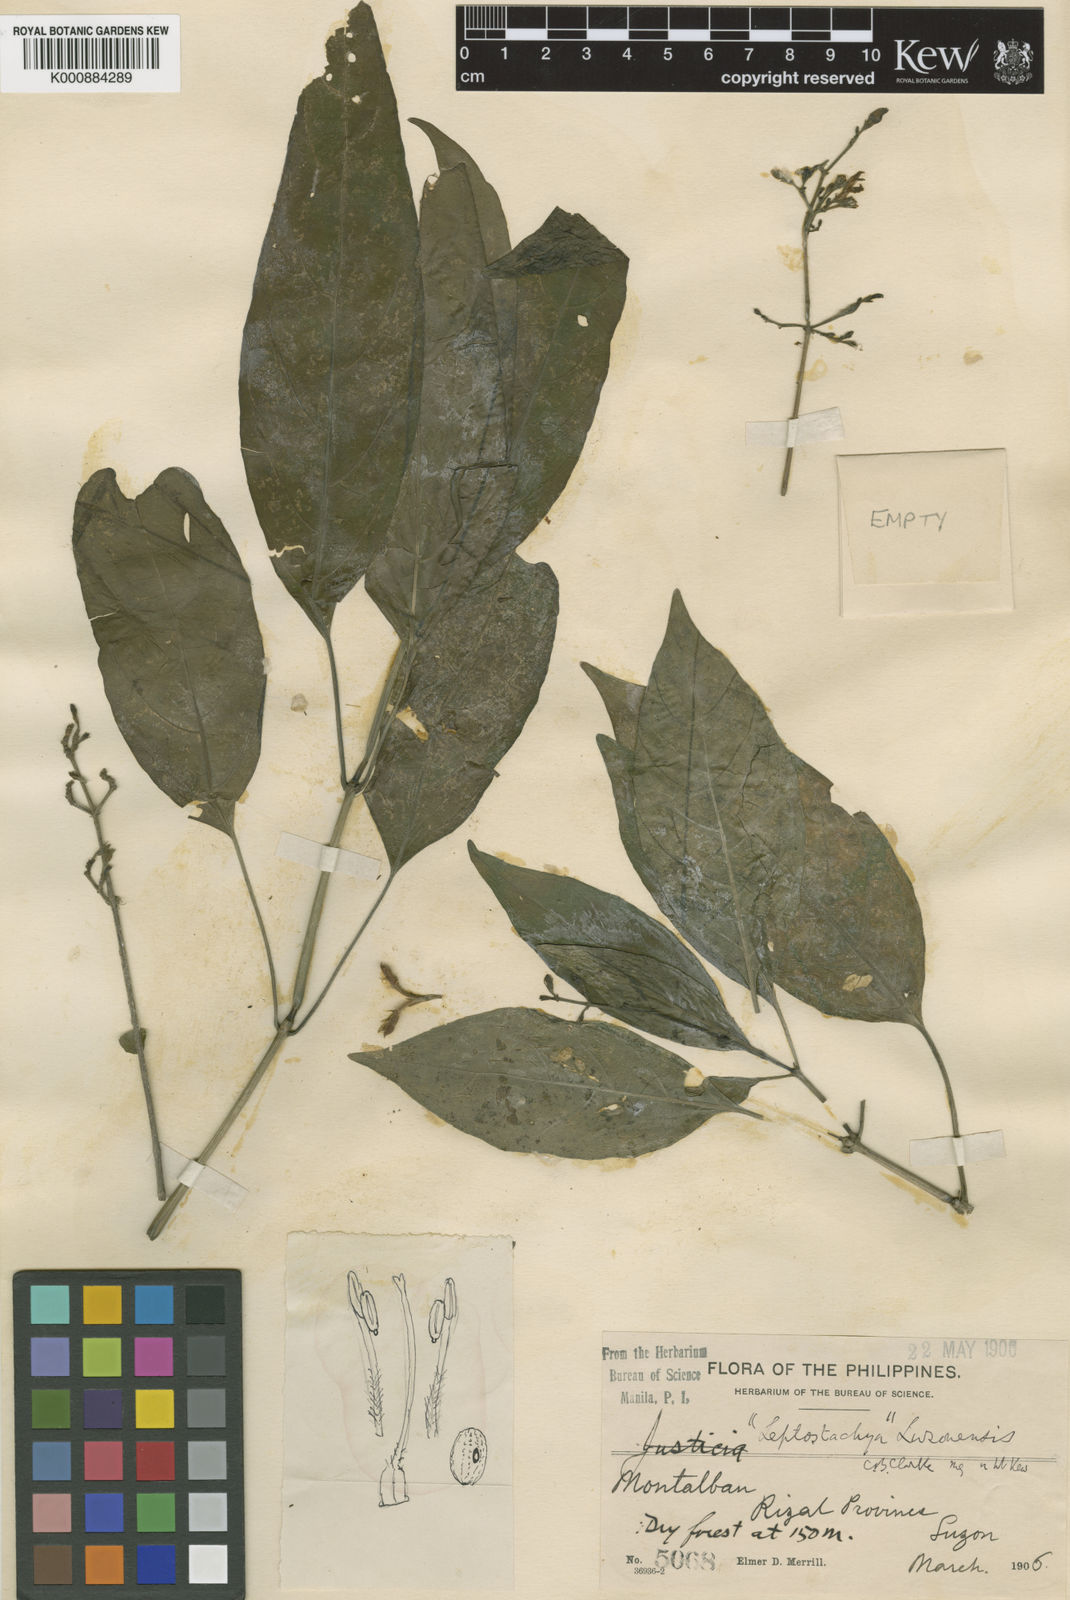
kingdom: Plantae
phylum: Tracheophyta
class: Magnoliopsida
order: Lamiales
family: Acanthaceae
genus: Rhaphidospora
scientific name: Rhaphidospora luzonensis
